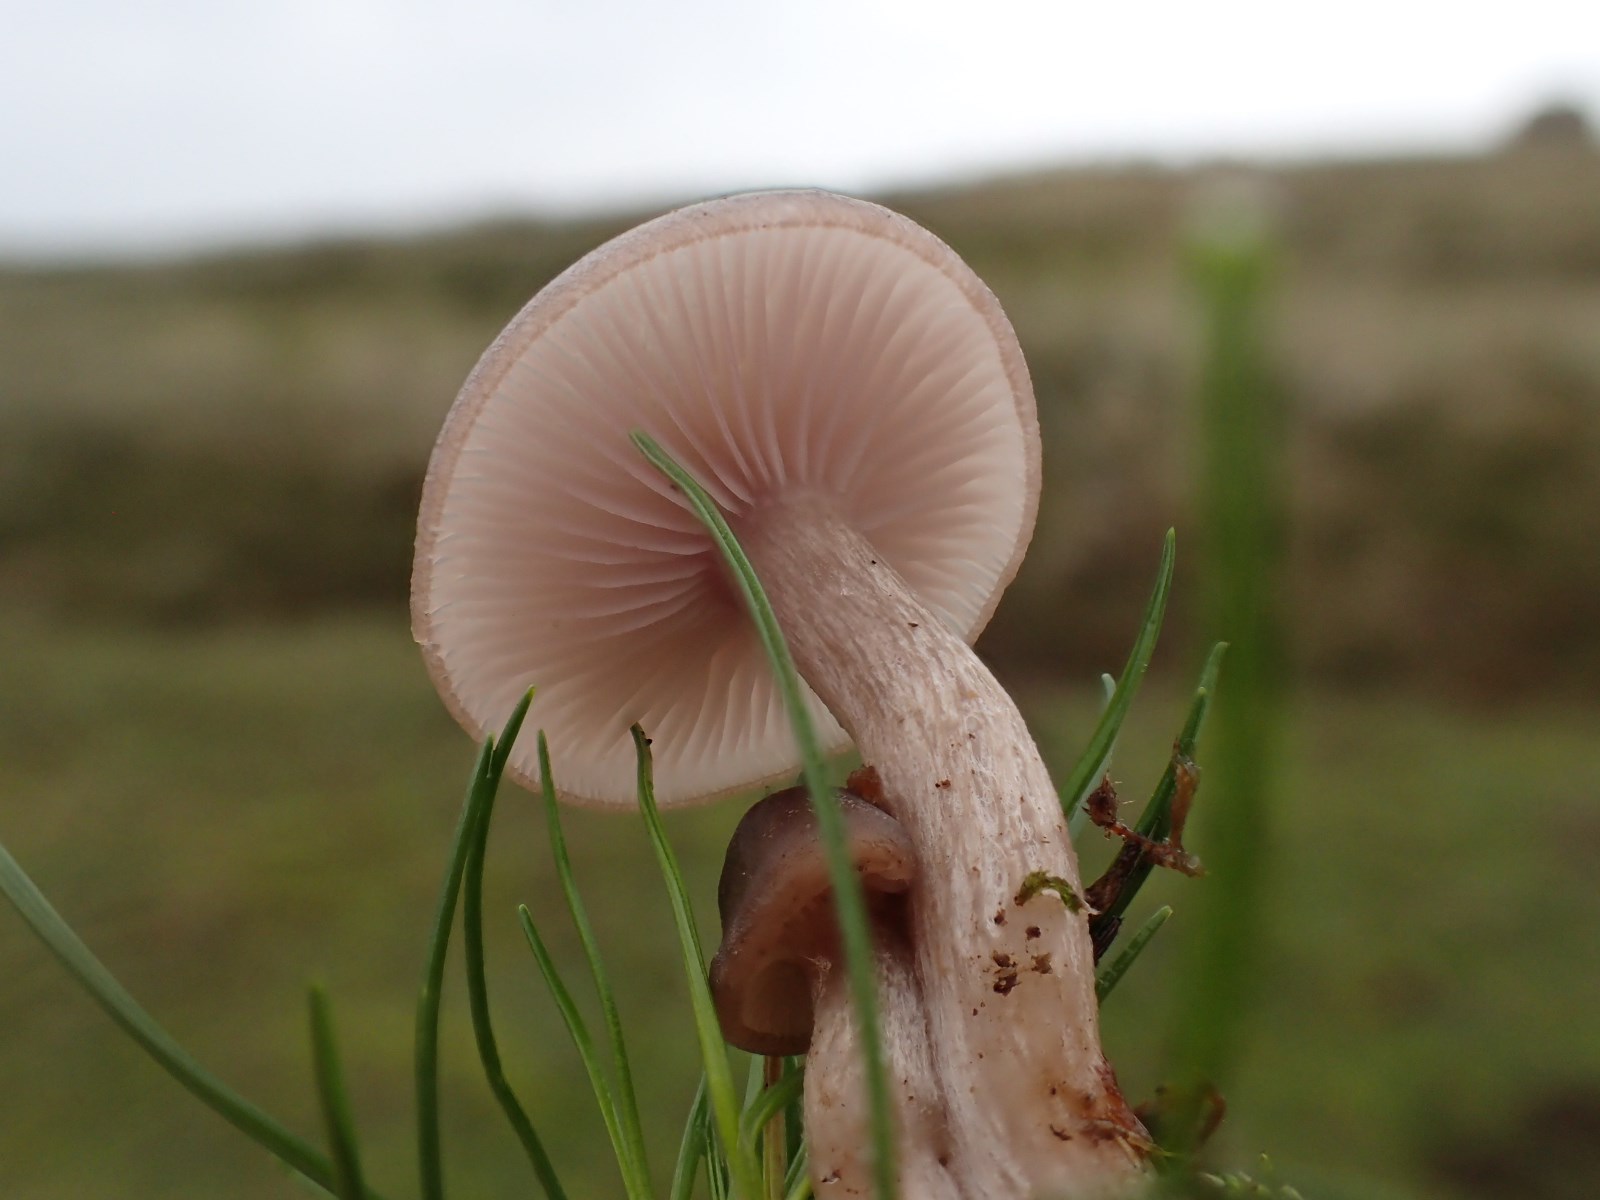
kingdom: Fungi
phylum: Basidiomycota
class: Agaricomycetes
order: Agaricales
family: Tricholomataceae
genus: Lepista
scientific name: Lepista sordida
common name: spinkel hekseringshat
